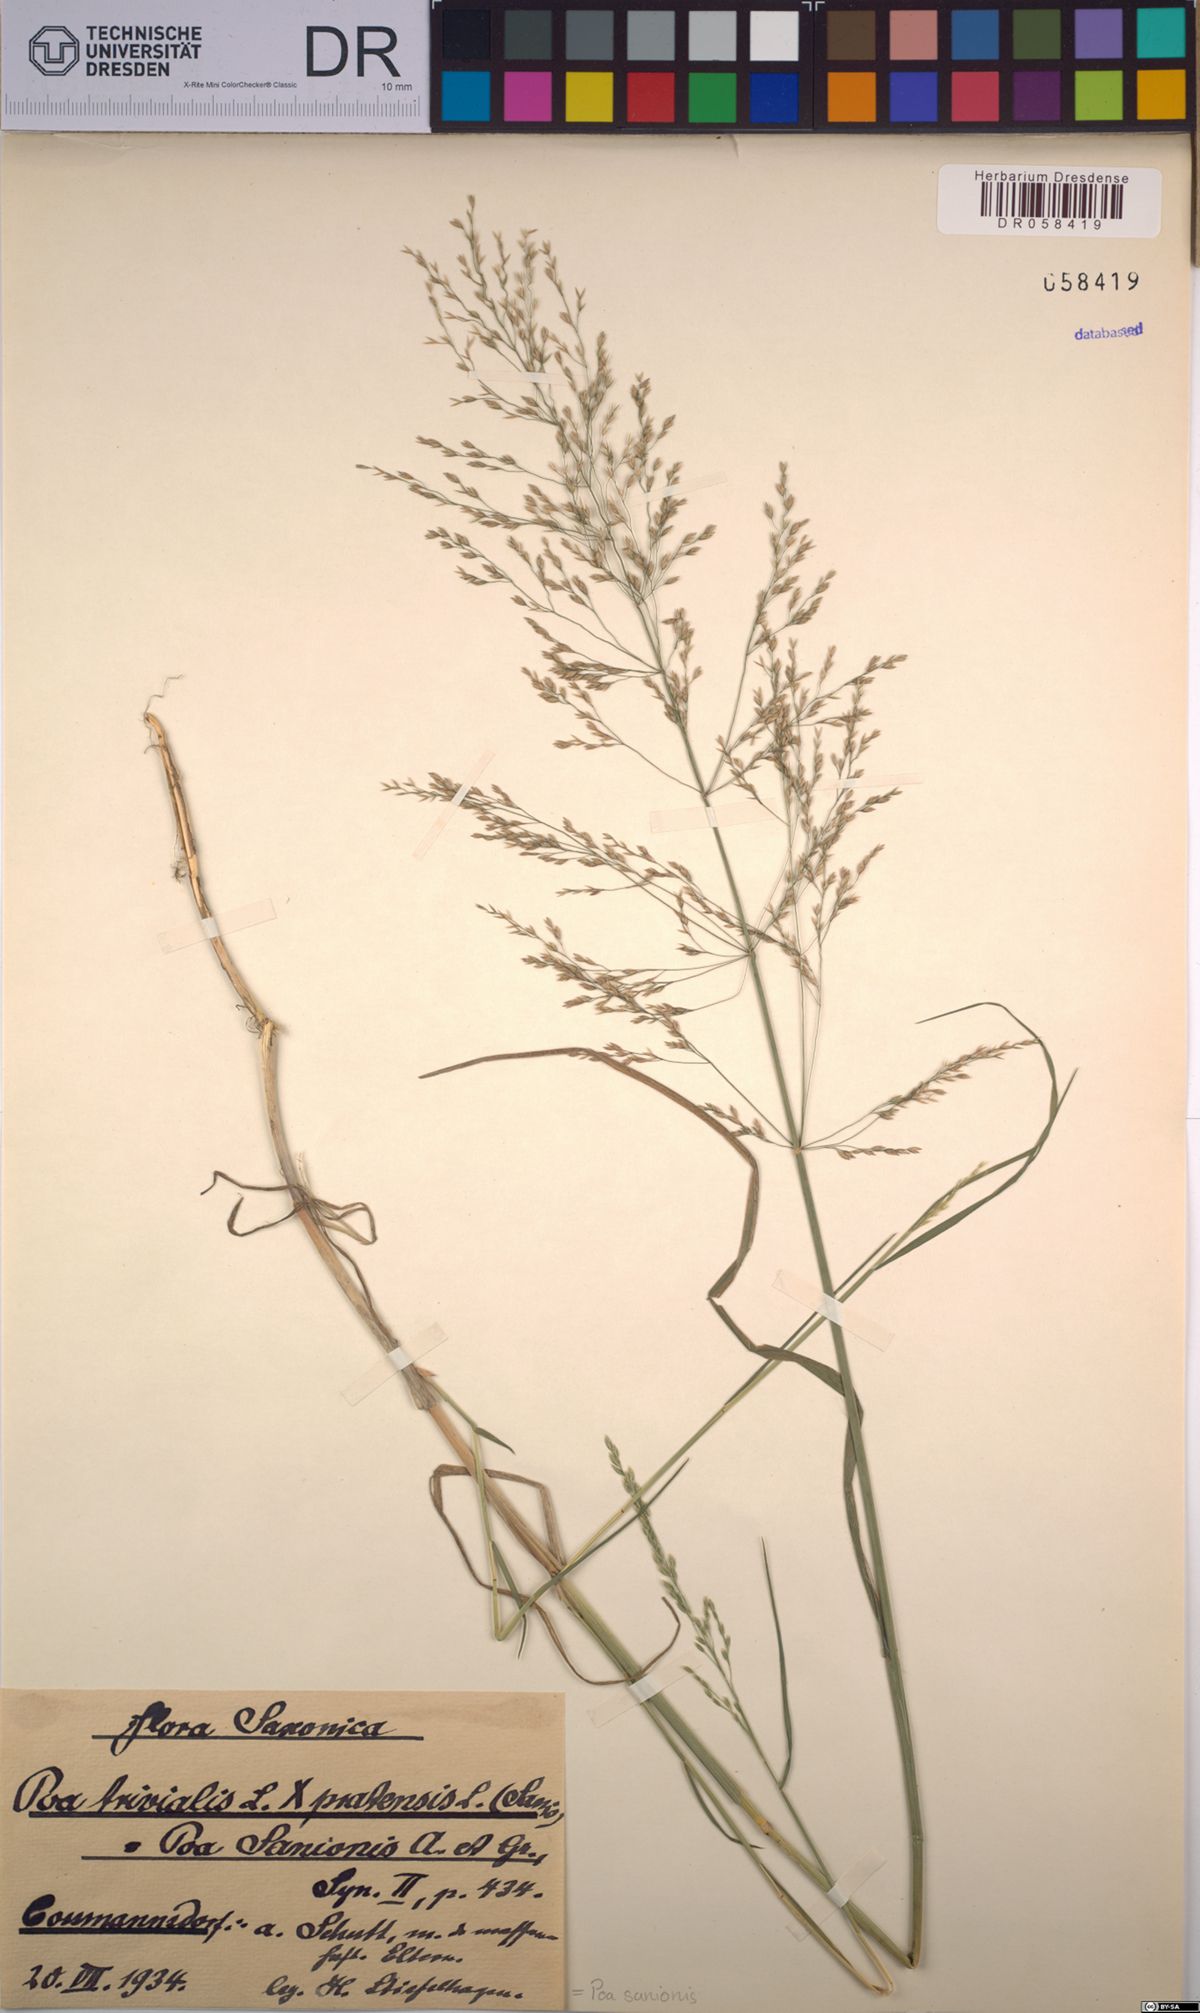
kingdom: Plantae
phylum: Tracheophyta
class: Liliopsida
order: Poales
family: Poaceae
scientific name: Poaceae
